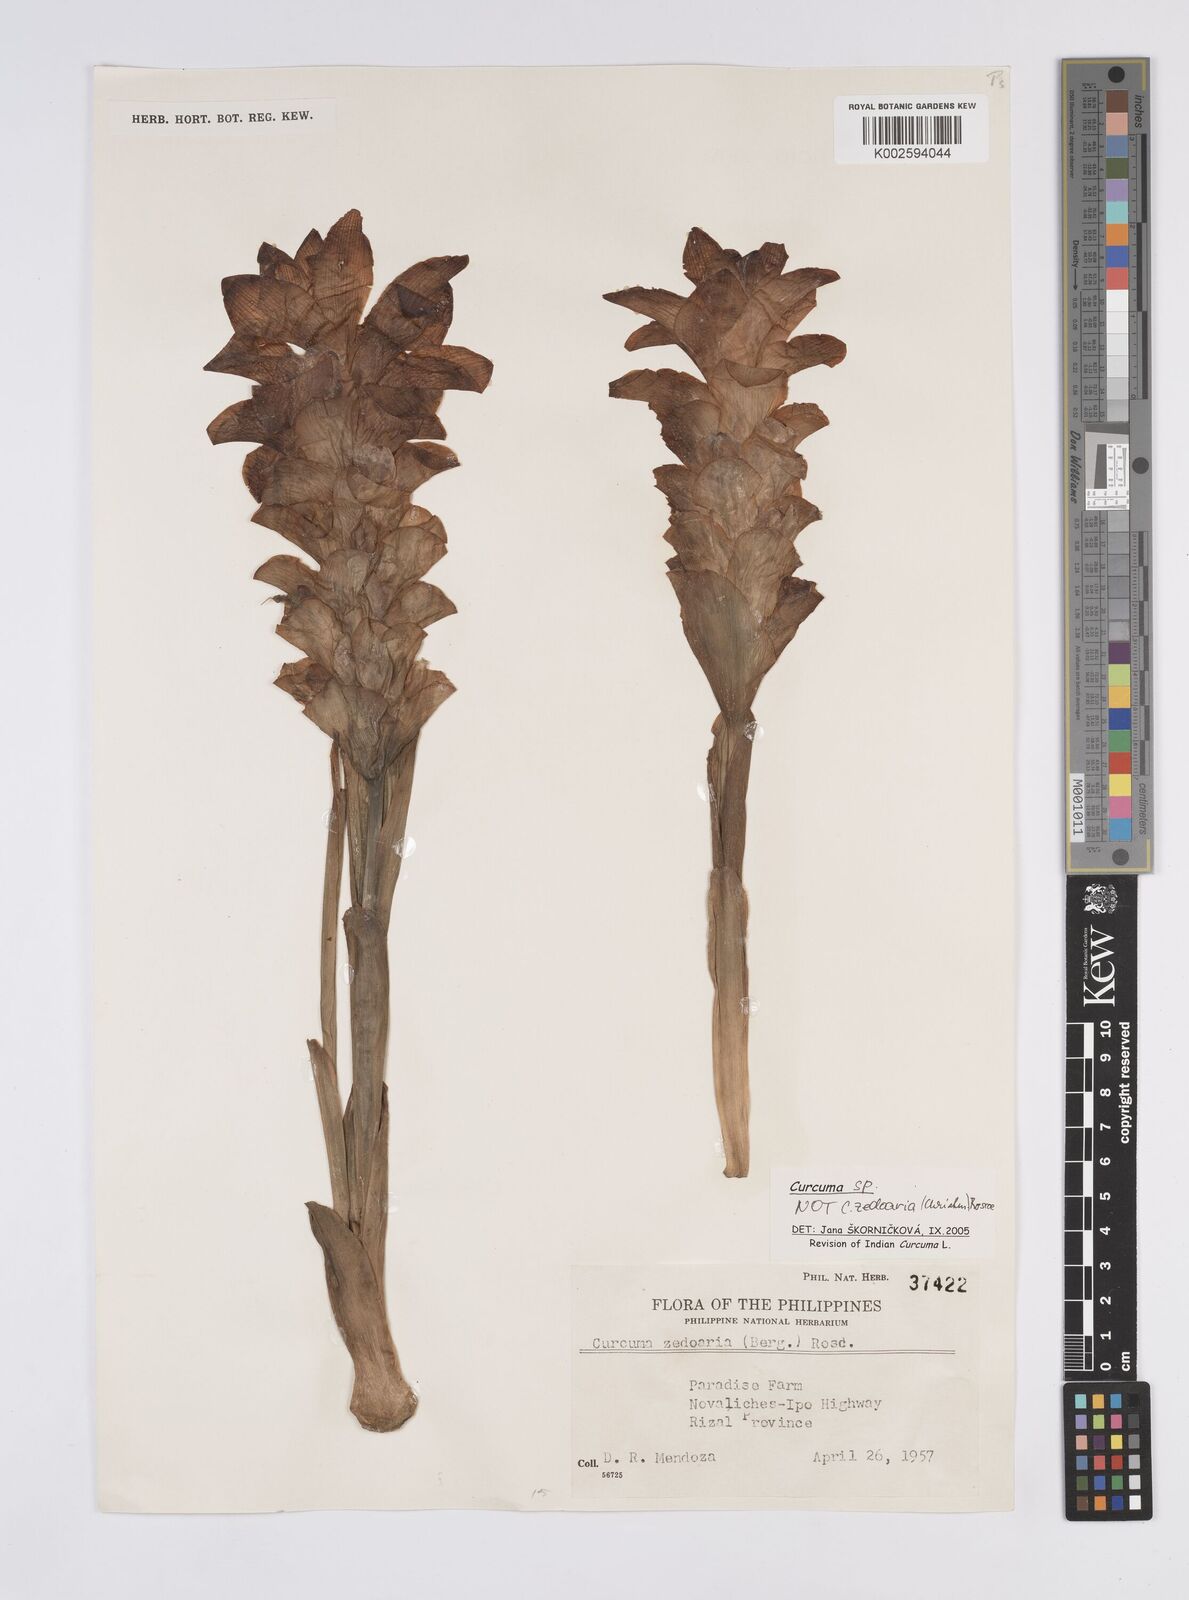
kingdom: Plantae
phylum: Tracheophyta
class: Liliopsida
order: Zingiberales
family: Zingiberaceae
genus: Curcuma
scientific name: Curcuma
